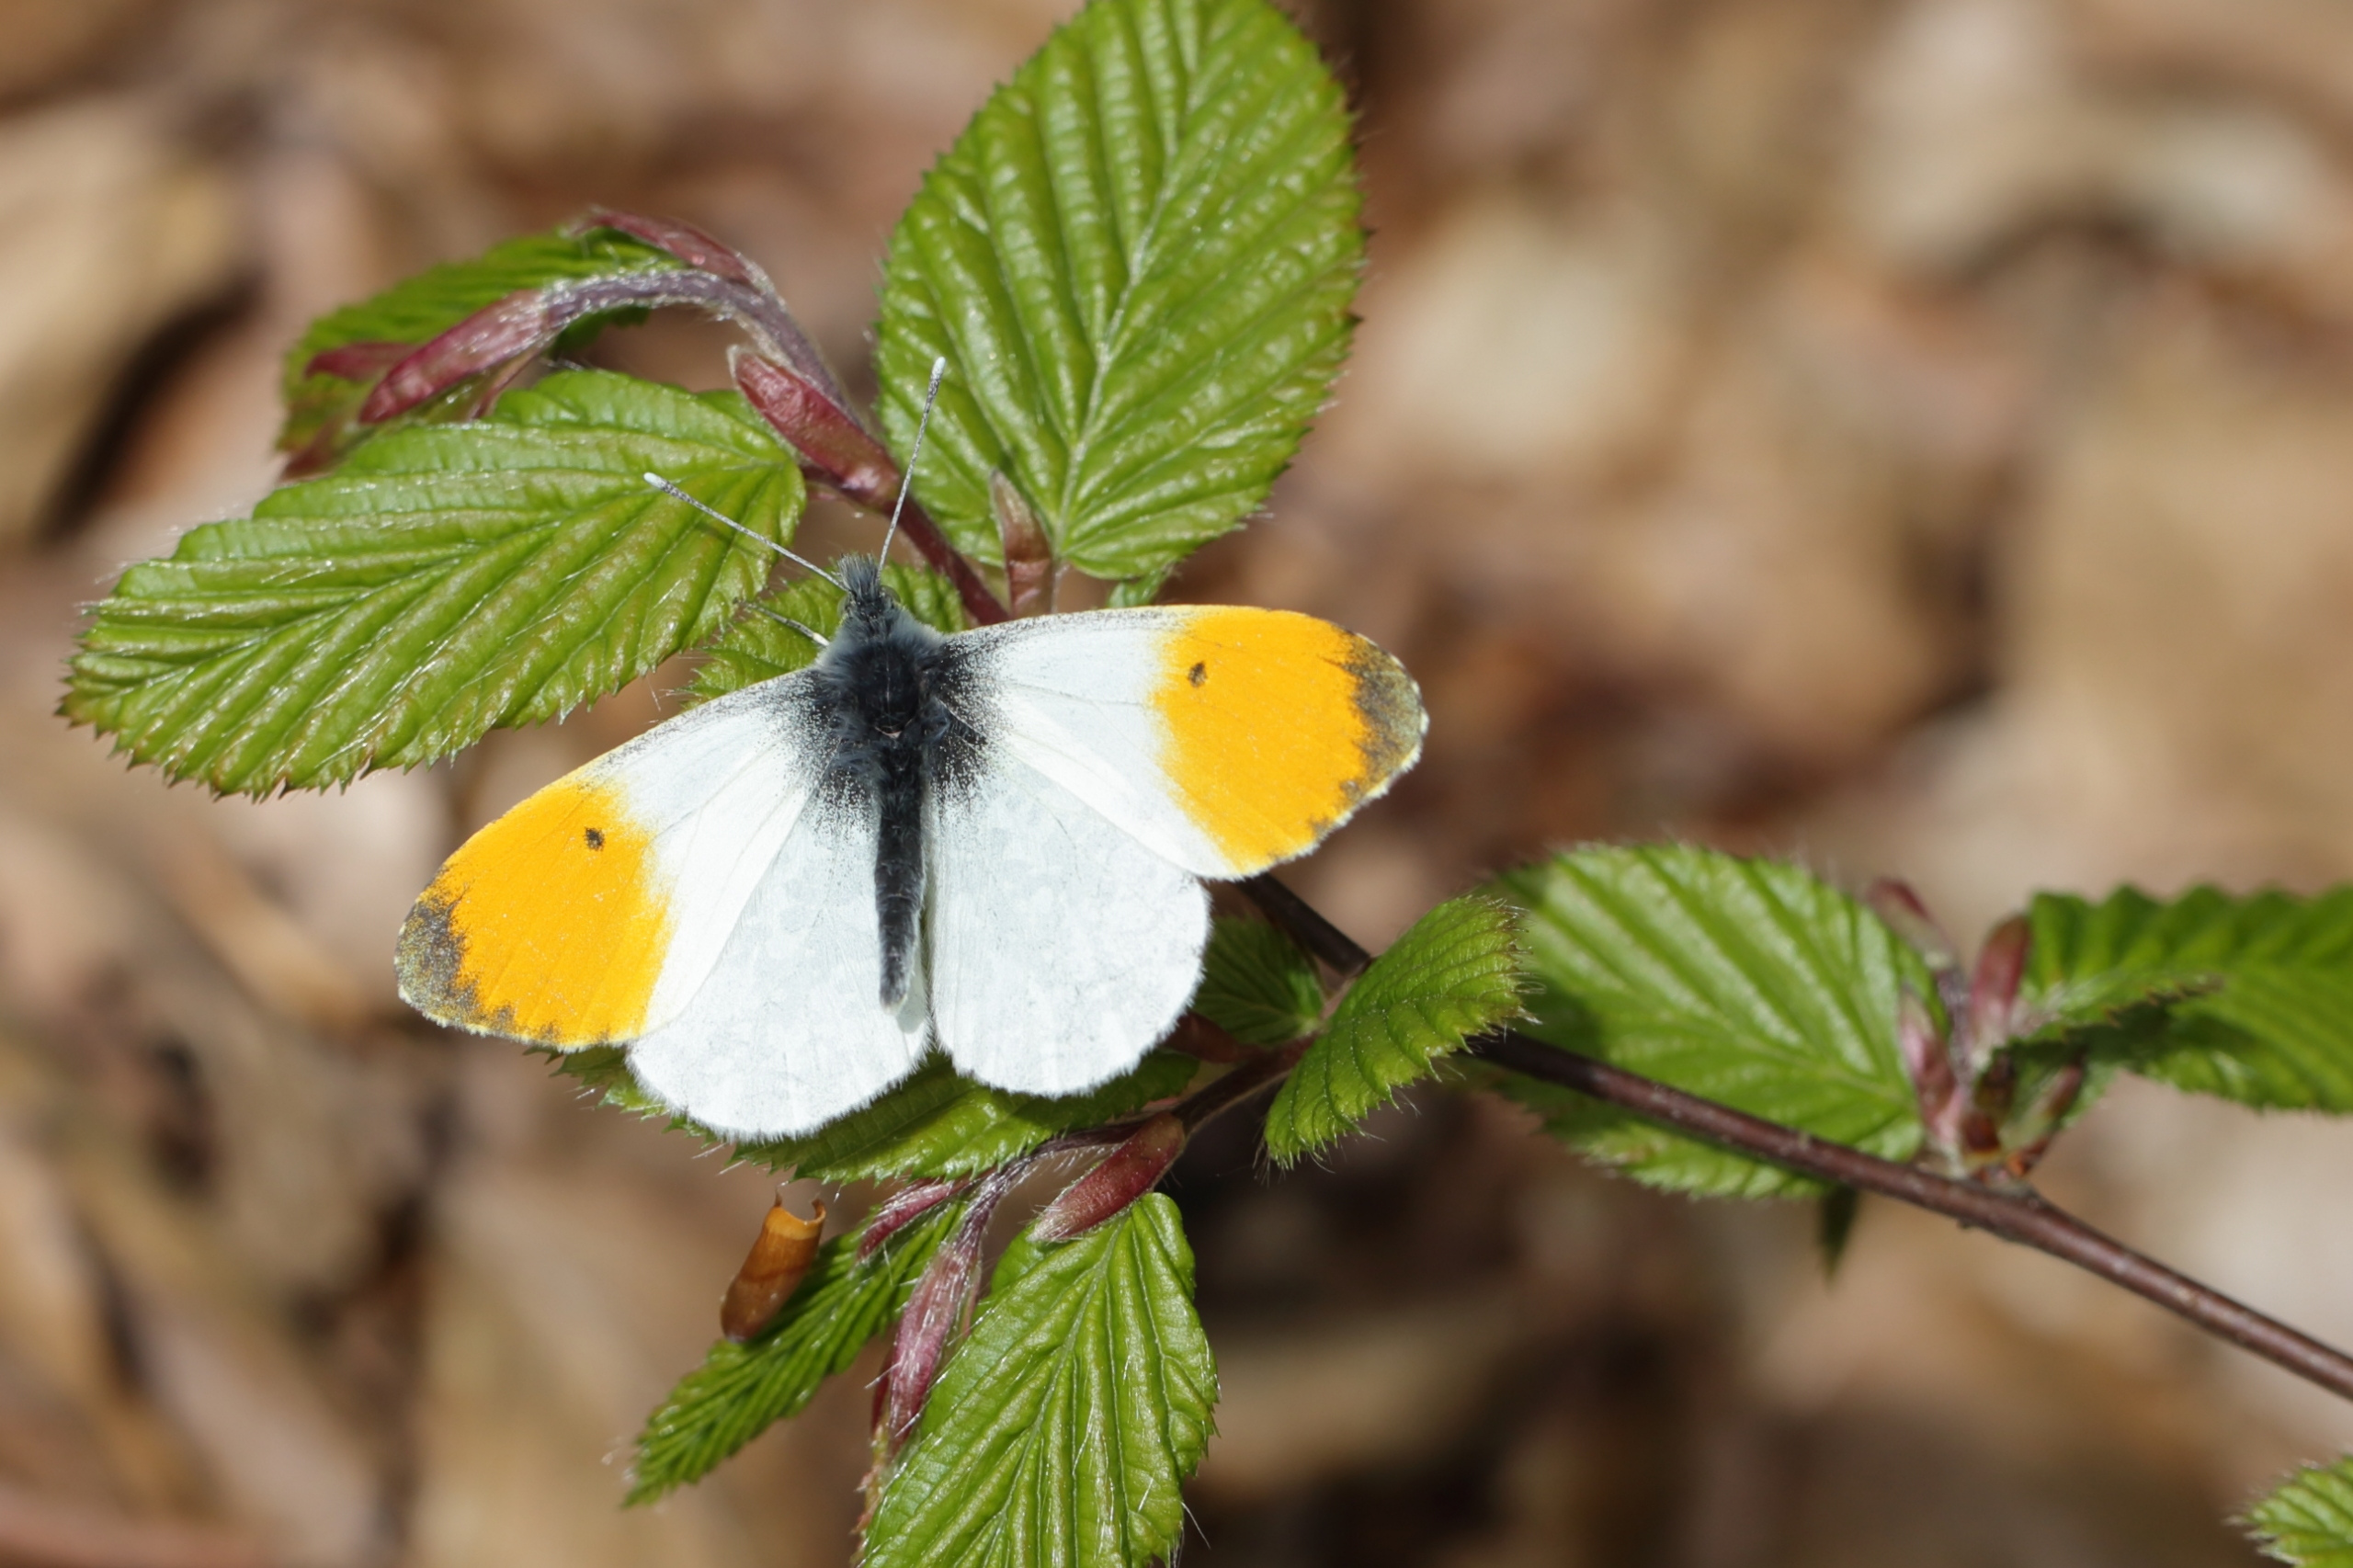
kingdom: Animalia
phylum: Arthropoda
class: Insecta
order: Lepidoptera
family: Pieridae
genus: Anthocharis
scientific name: Anthocharis cardamines
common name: Aurora
